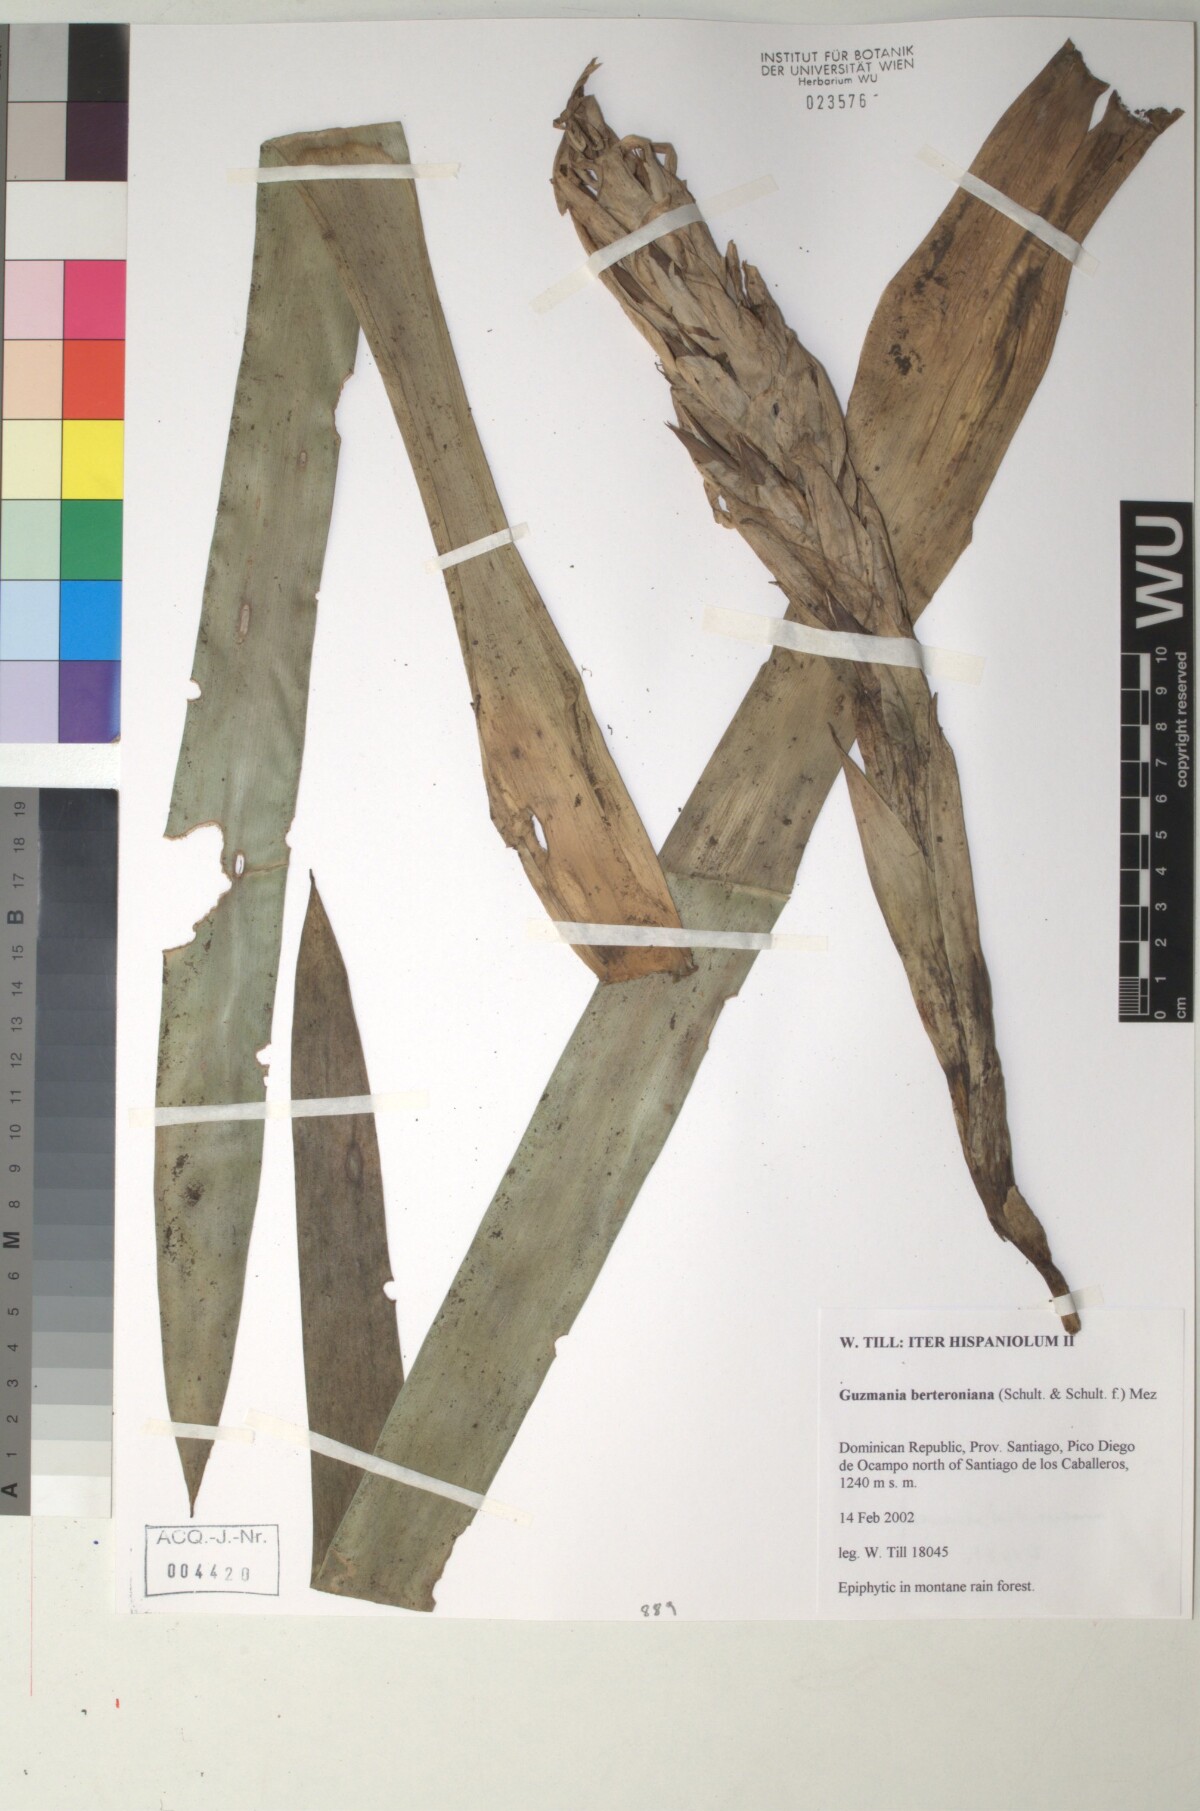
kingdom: Plantae
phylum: Tracheophyta
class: Liliopsida
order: Poales
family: Bromeliaceae
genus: Guzmania
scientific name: Guzmania berteroniana
